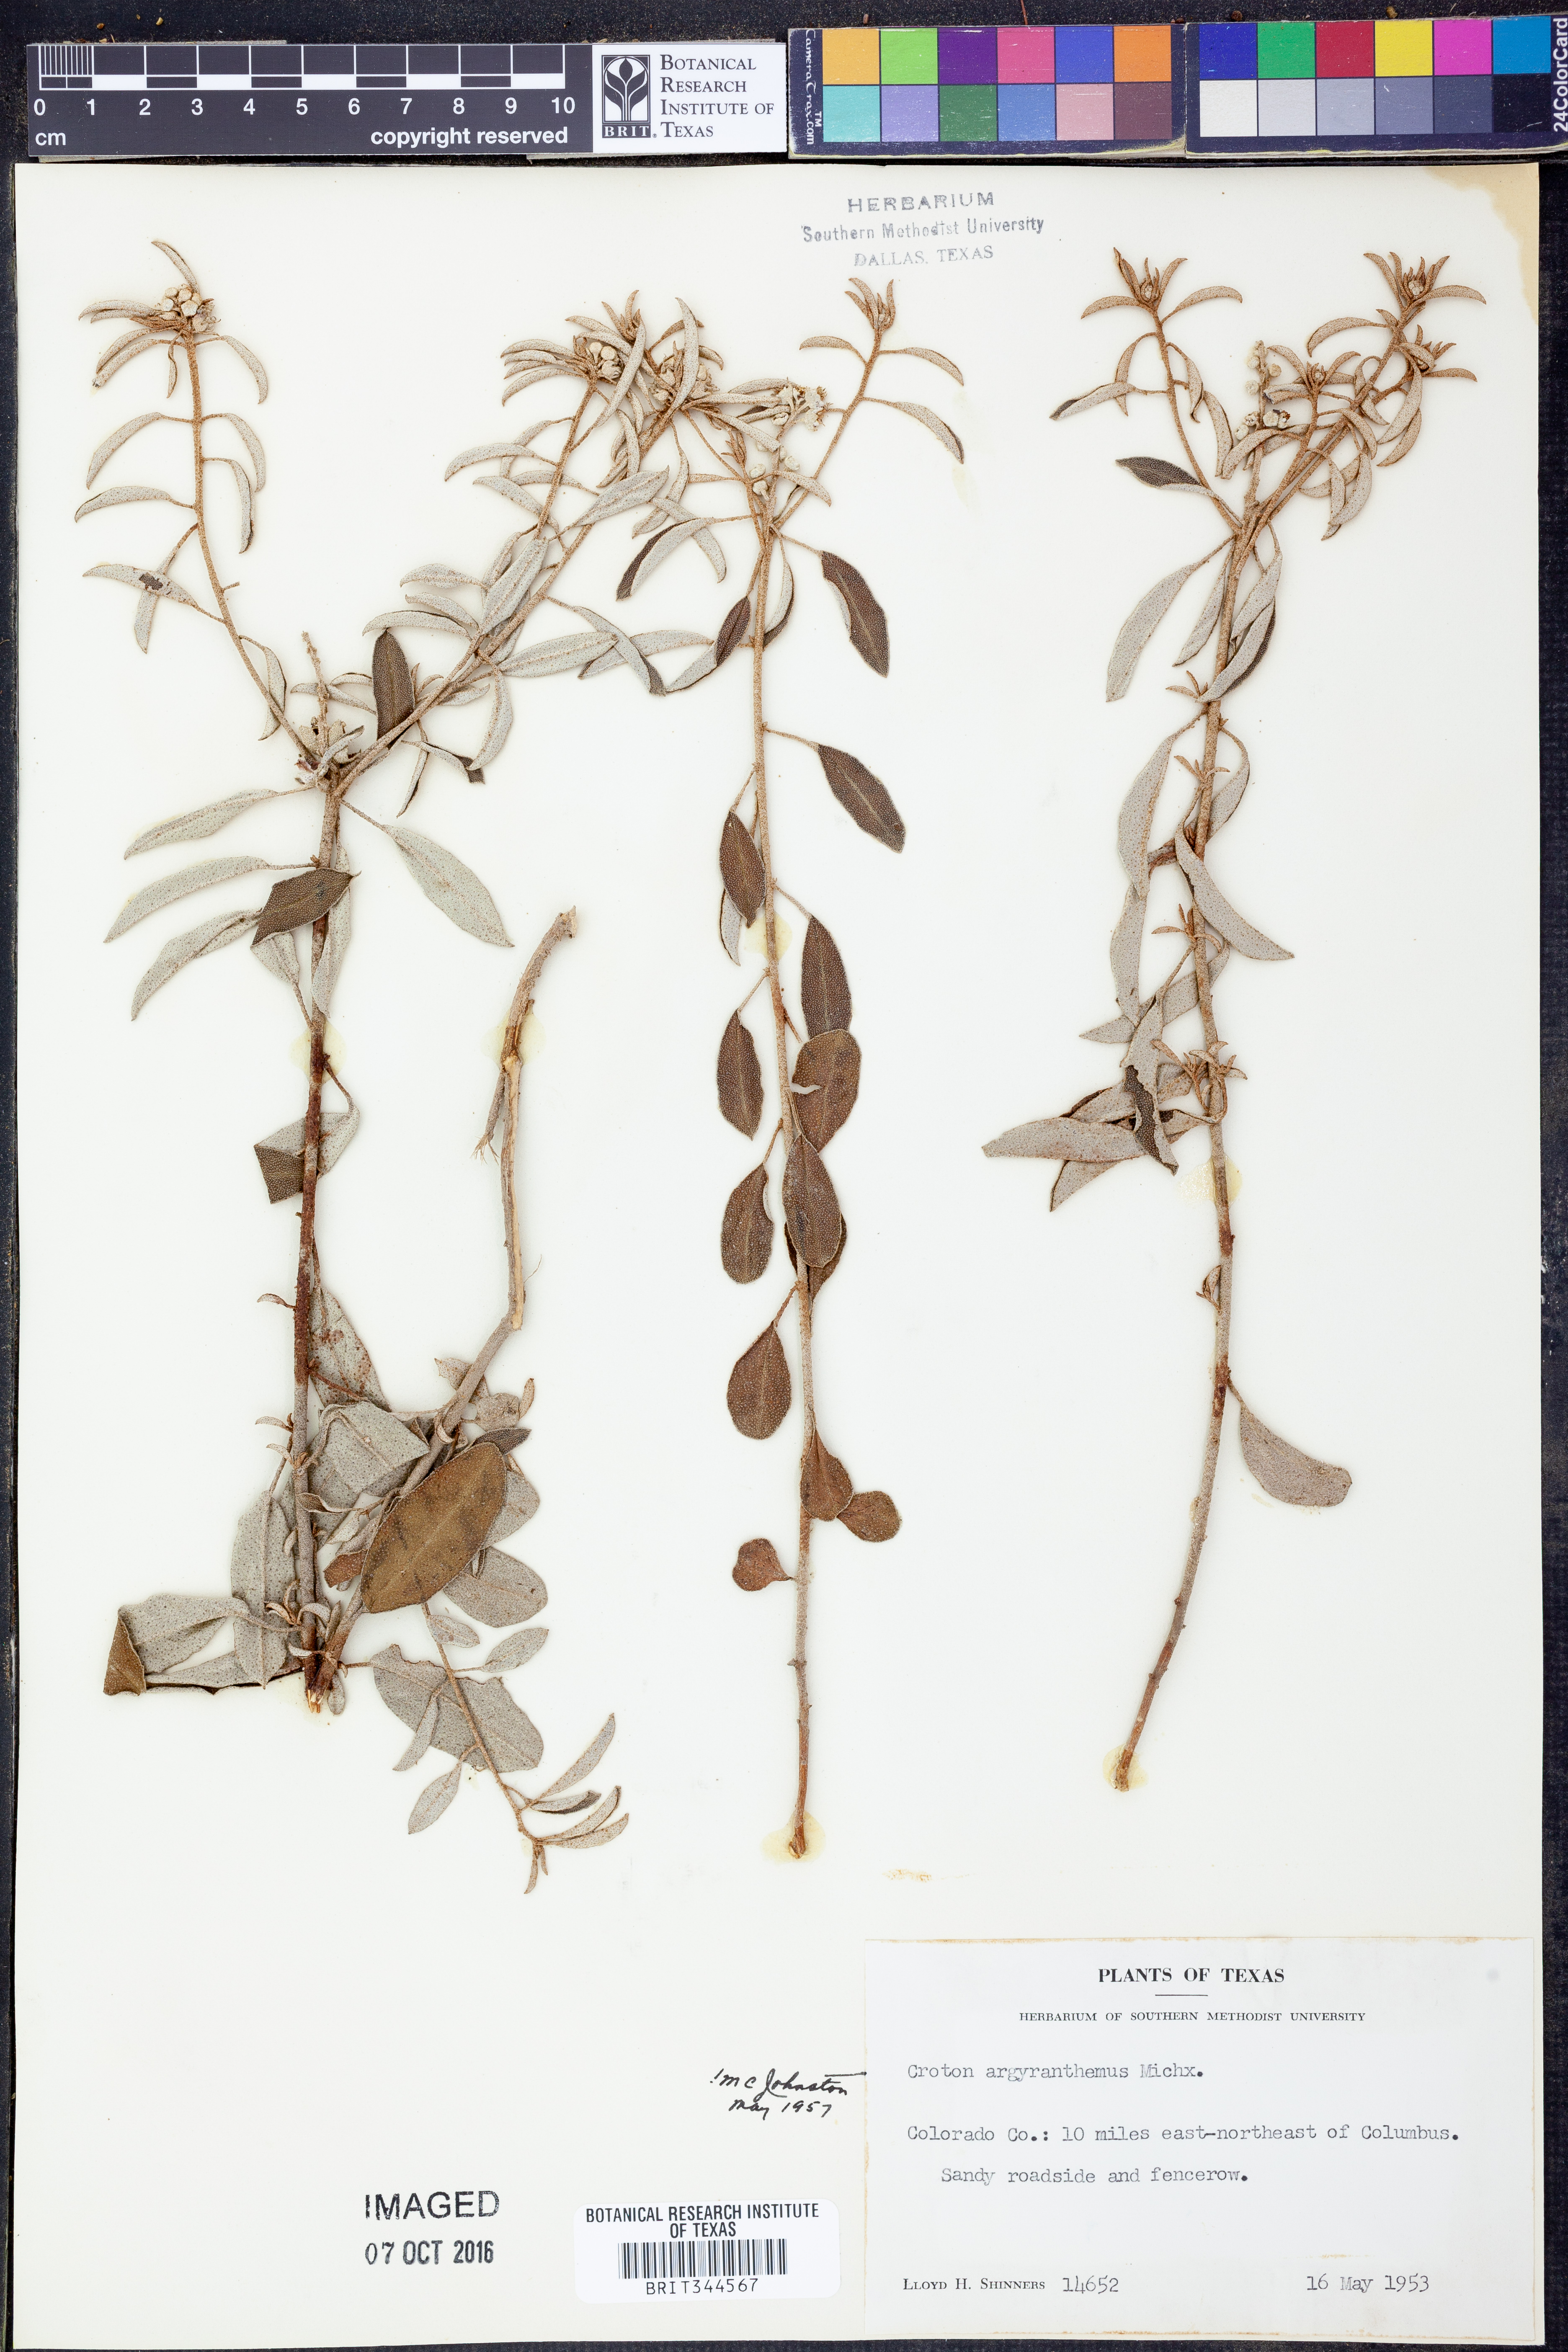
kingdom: Plantae
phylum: Tracheophyta
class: Magnoliopsida
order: Malpighiales
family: Euphorbiaceae
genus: Croton
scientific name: Croton argyranthemus
